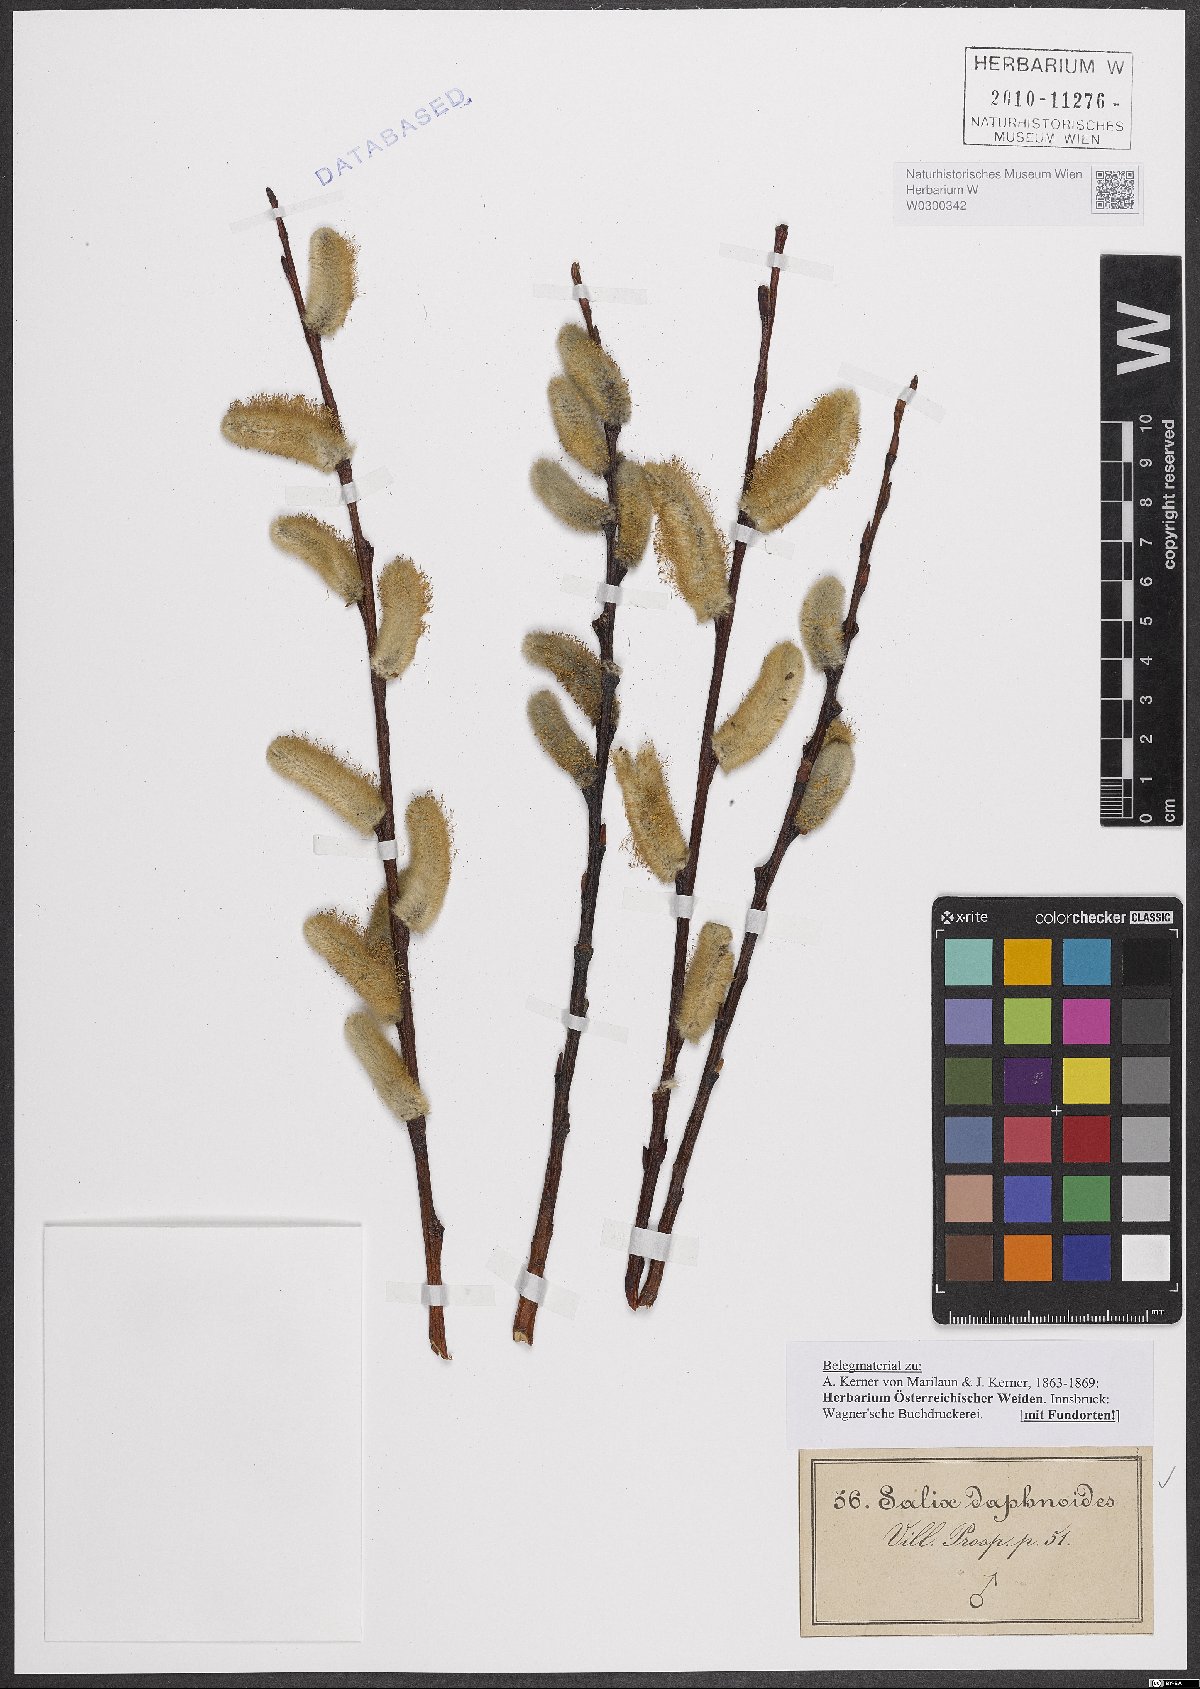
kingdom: Plantae
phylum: Tracheophyta
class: Magnoliopsida
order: Malpighiales
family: Salicaceae
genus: Salix
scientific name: Salix daphnoides
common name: European violet-willow
